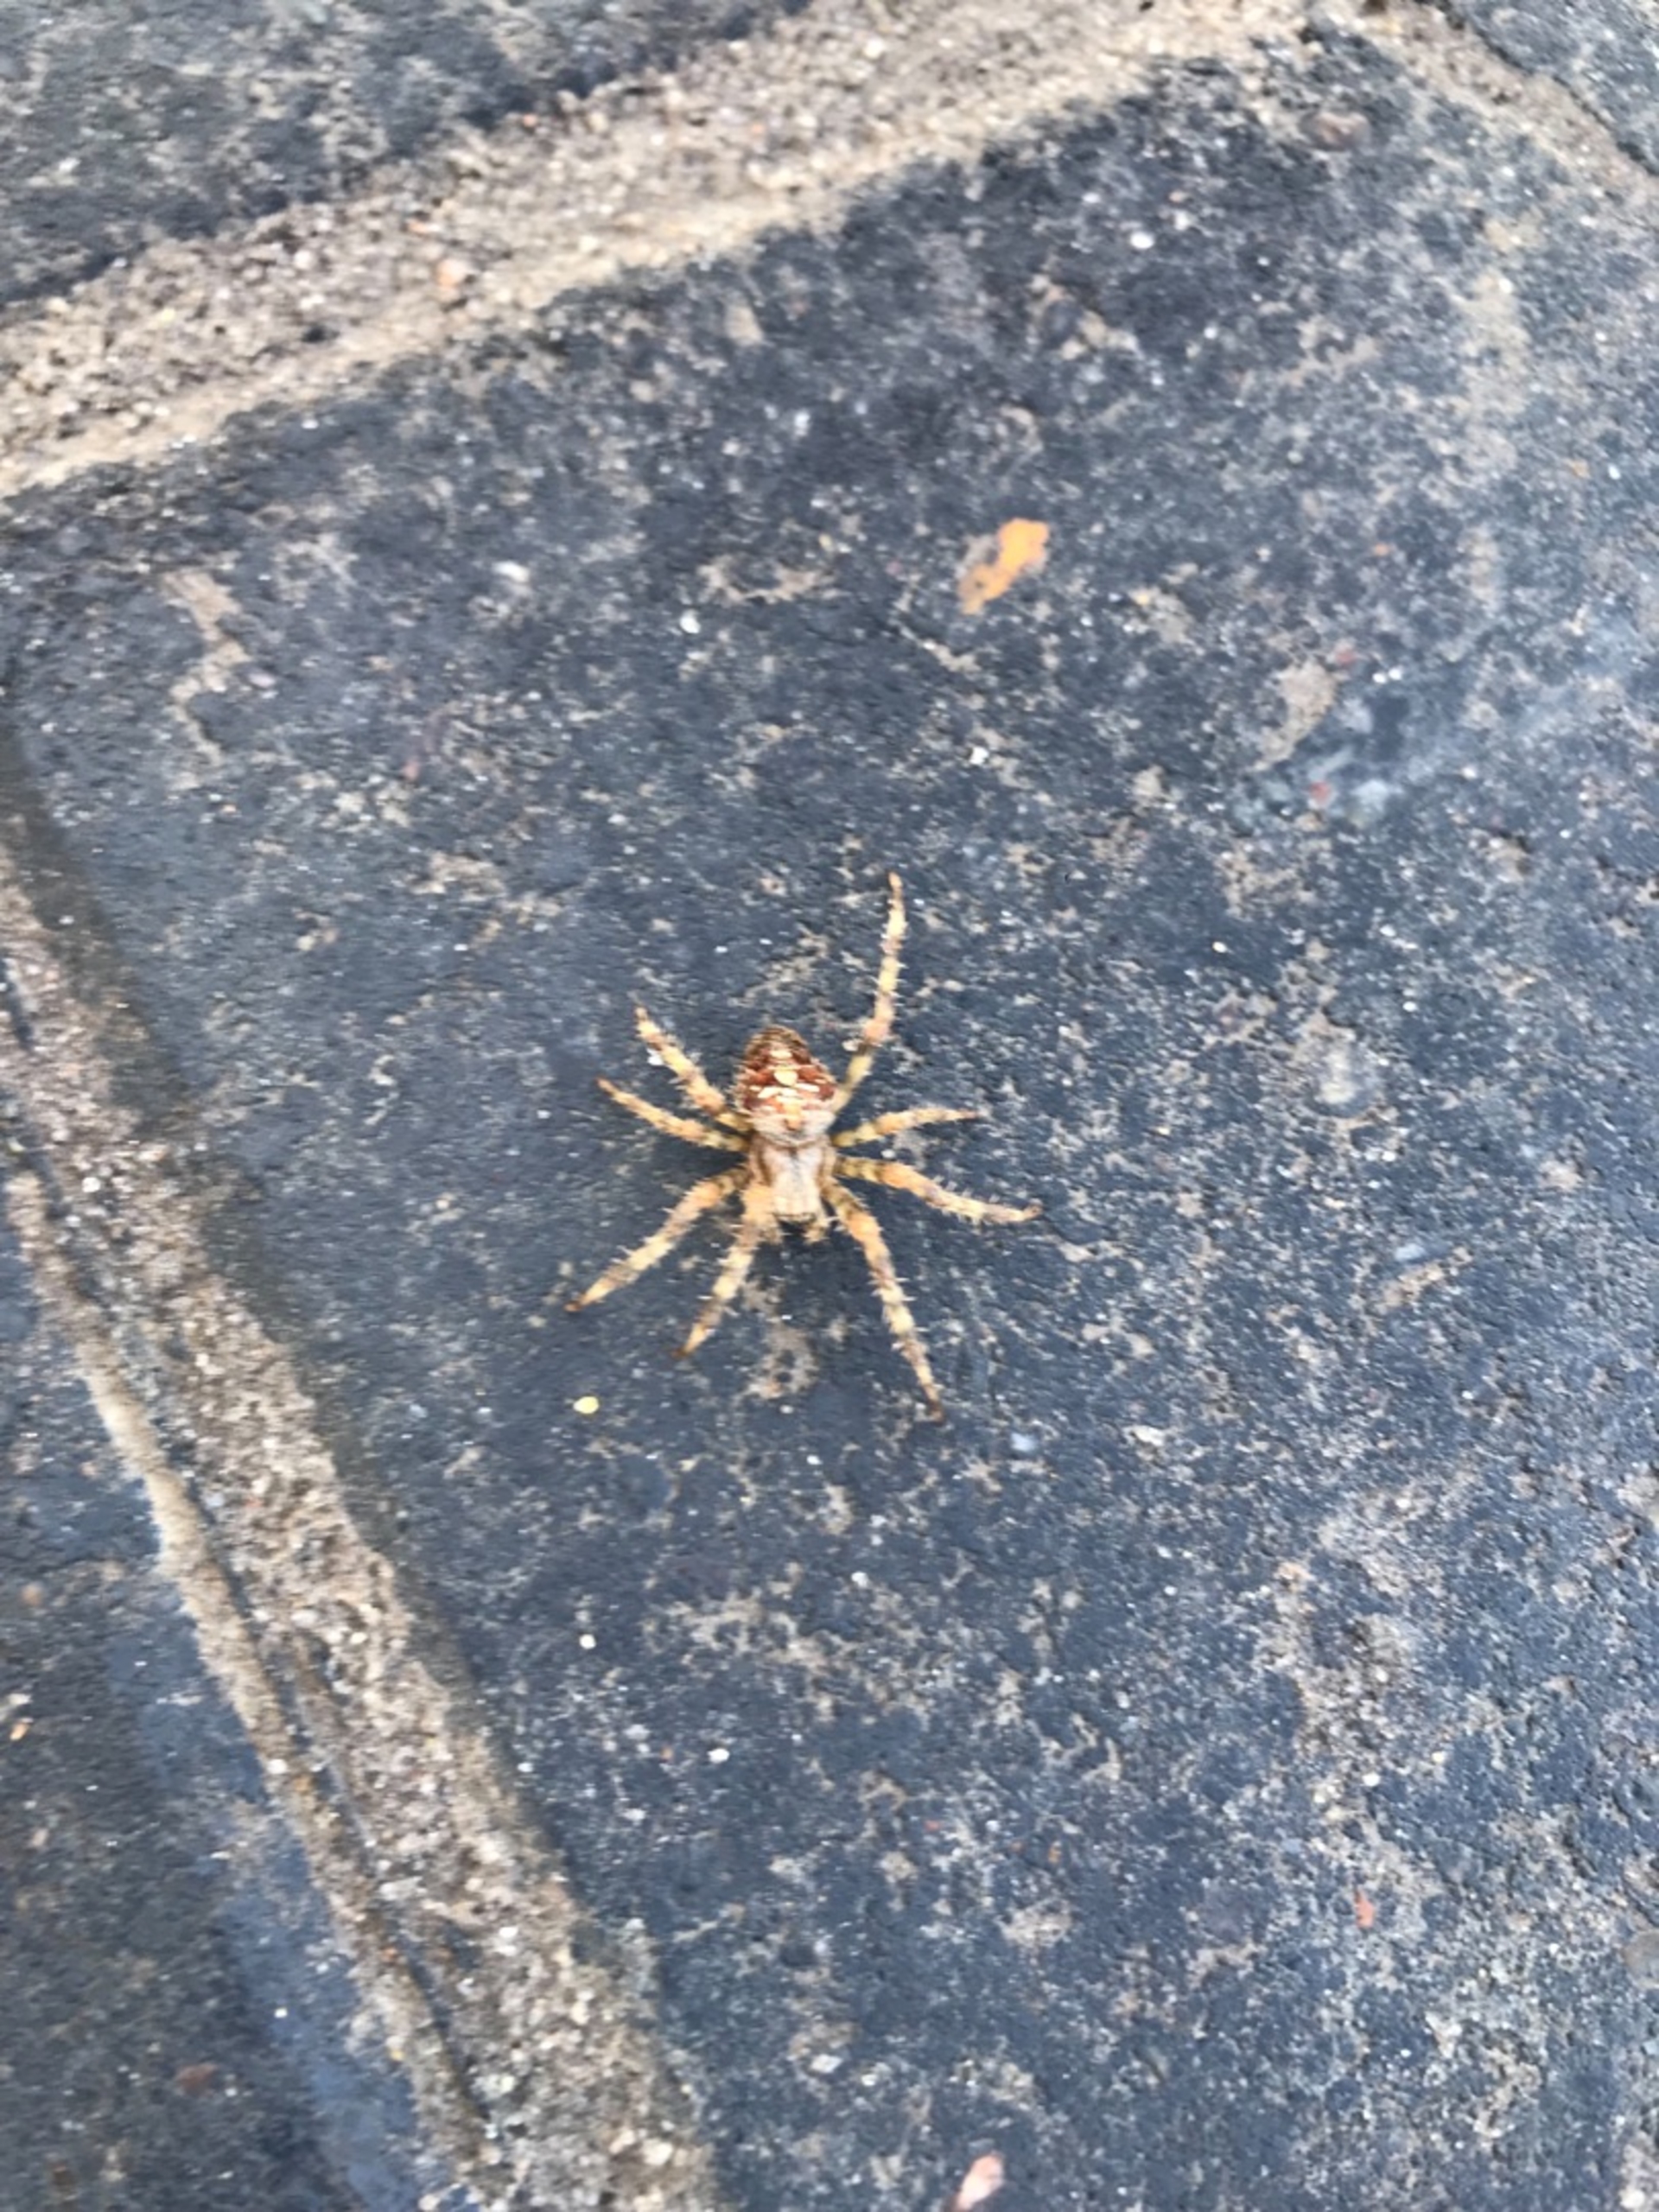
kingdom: Animalia
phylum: Arthropoda
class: Arachnida
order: Araneae
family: Araneidae
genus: Araneus
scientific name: Araneus diadematus
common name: Korsedderkop
